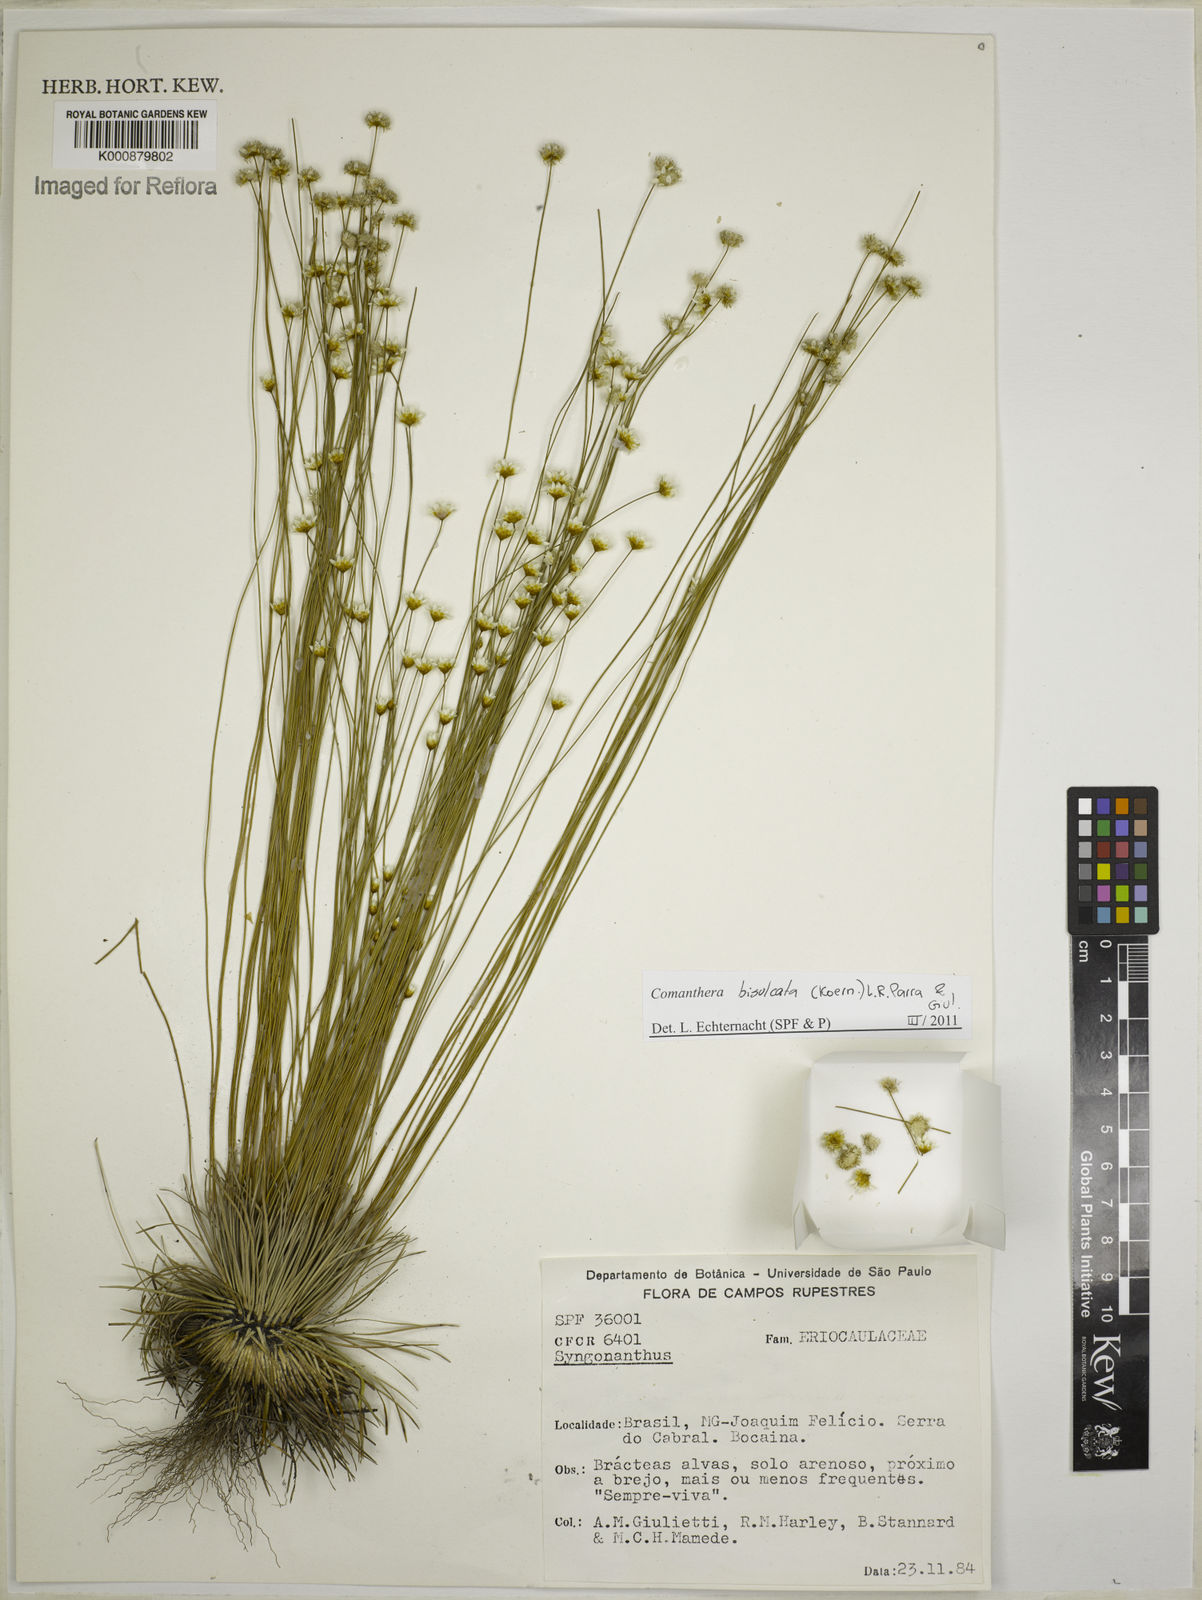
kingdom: Plantae
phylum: Tracheophyta
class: Liliopsida
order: Poales
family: Eriocaulaceae
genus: Comanthera
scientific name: Comanthera
